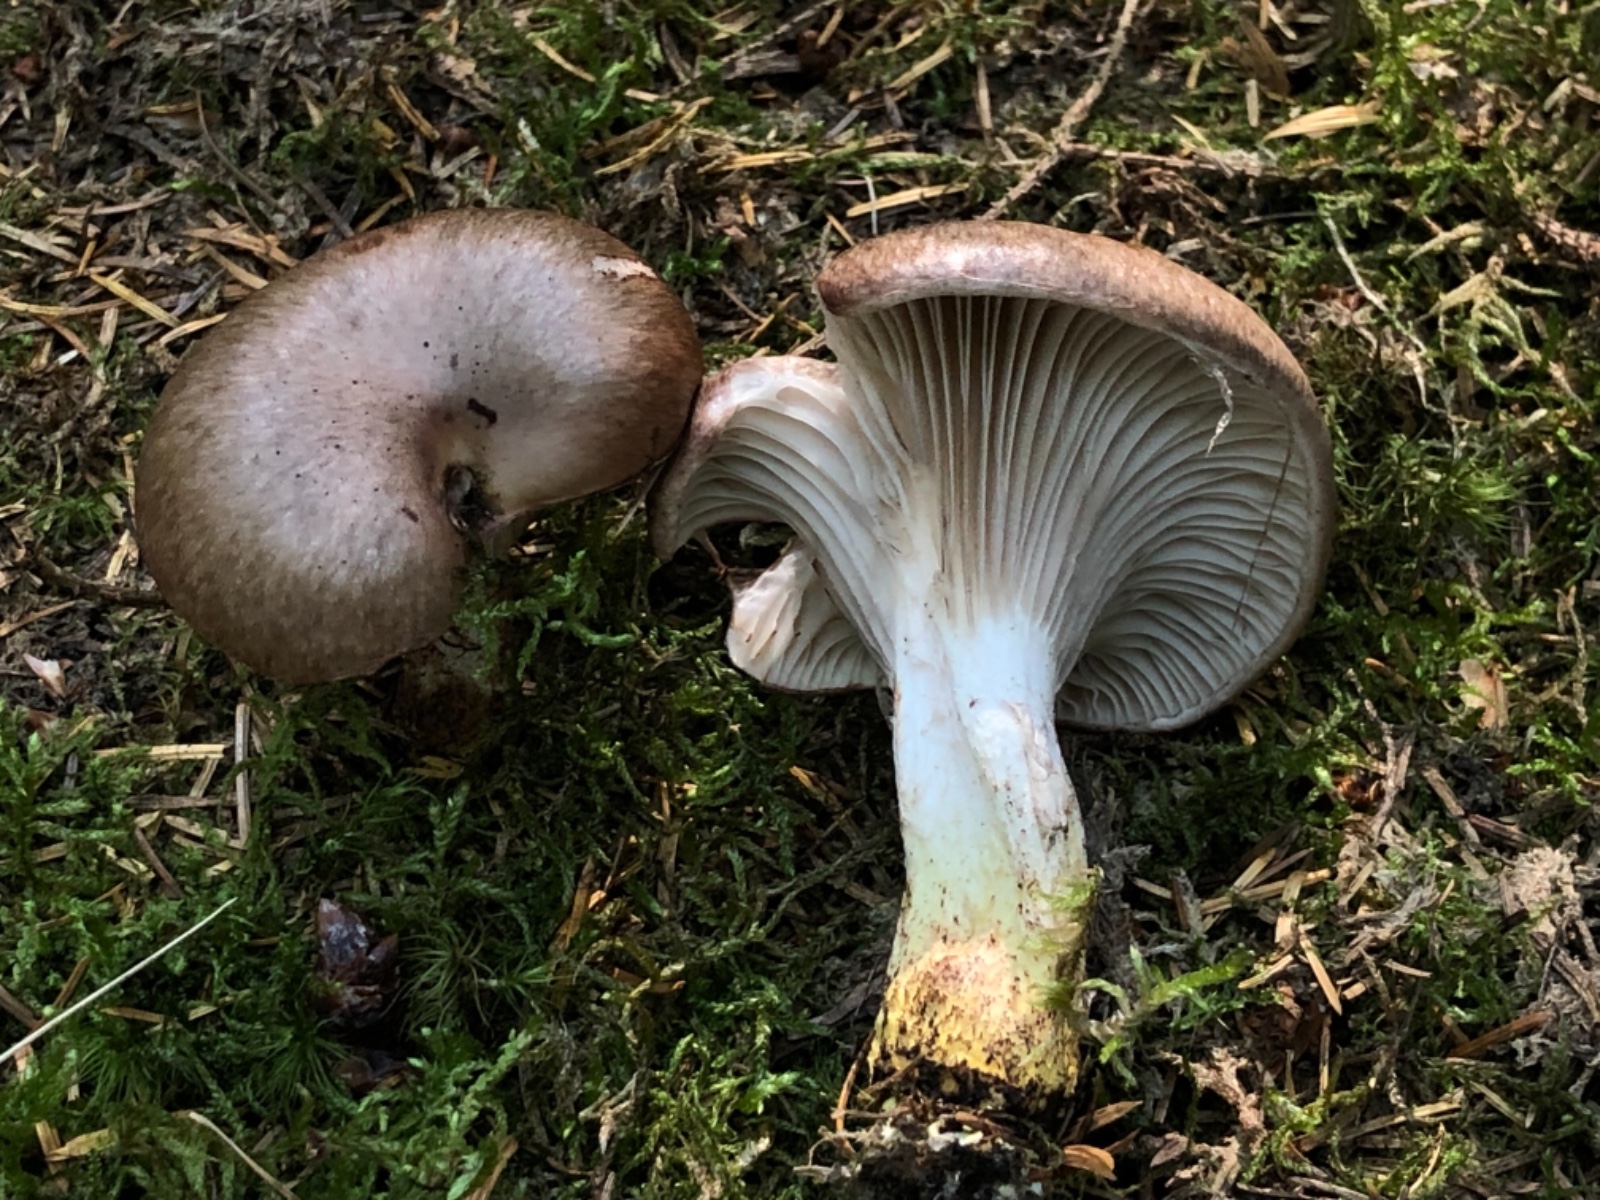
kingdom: Fungi
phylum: Basidiomycota
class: Agaricomycetes
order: Boletales
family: Gomphidiaceae
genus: Gomphidius
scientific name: Gomphidius glutinosus
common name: grå slimslør
